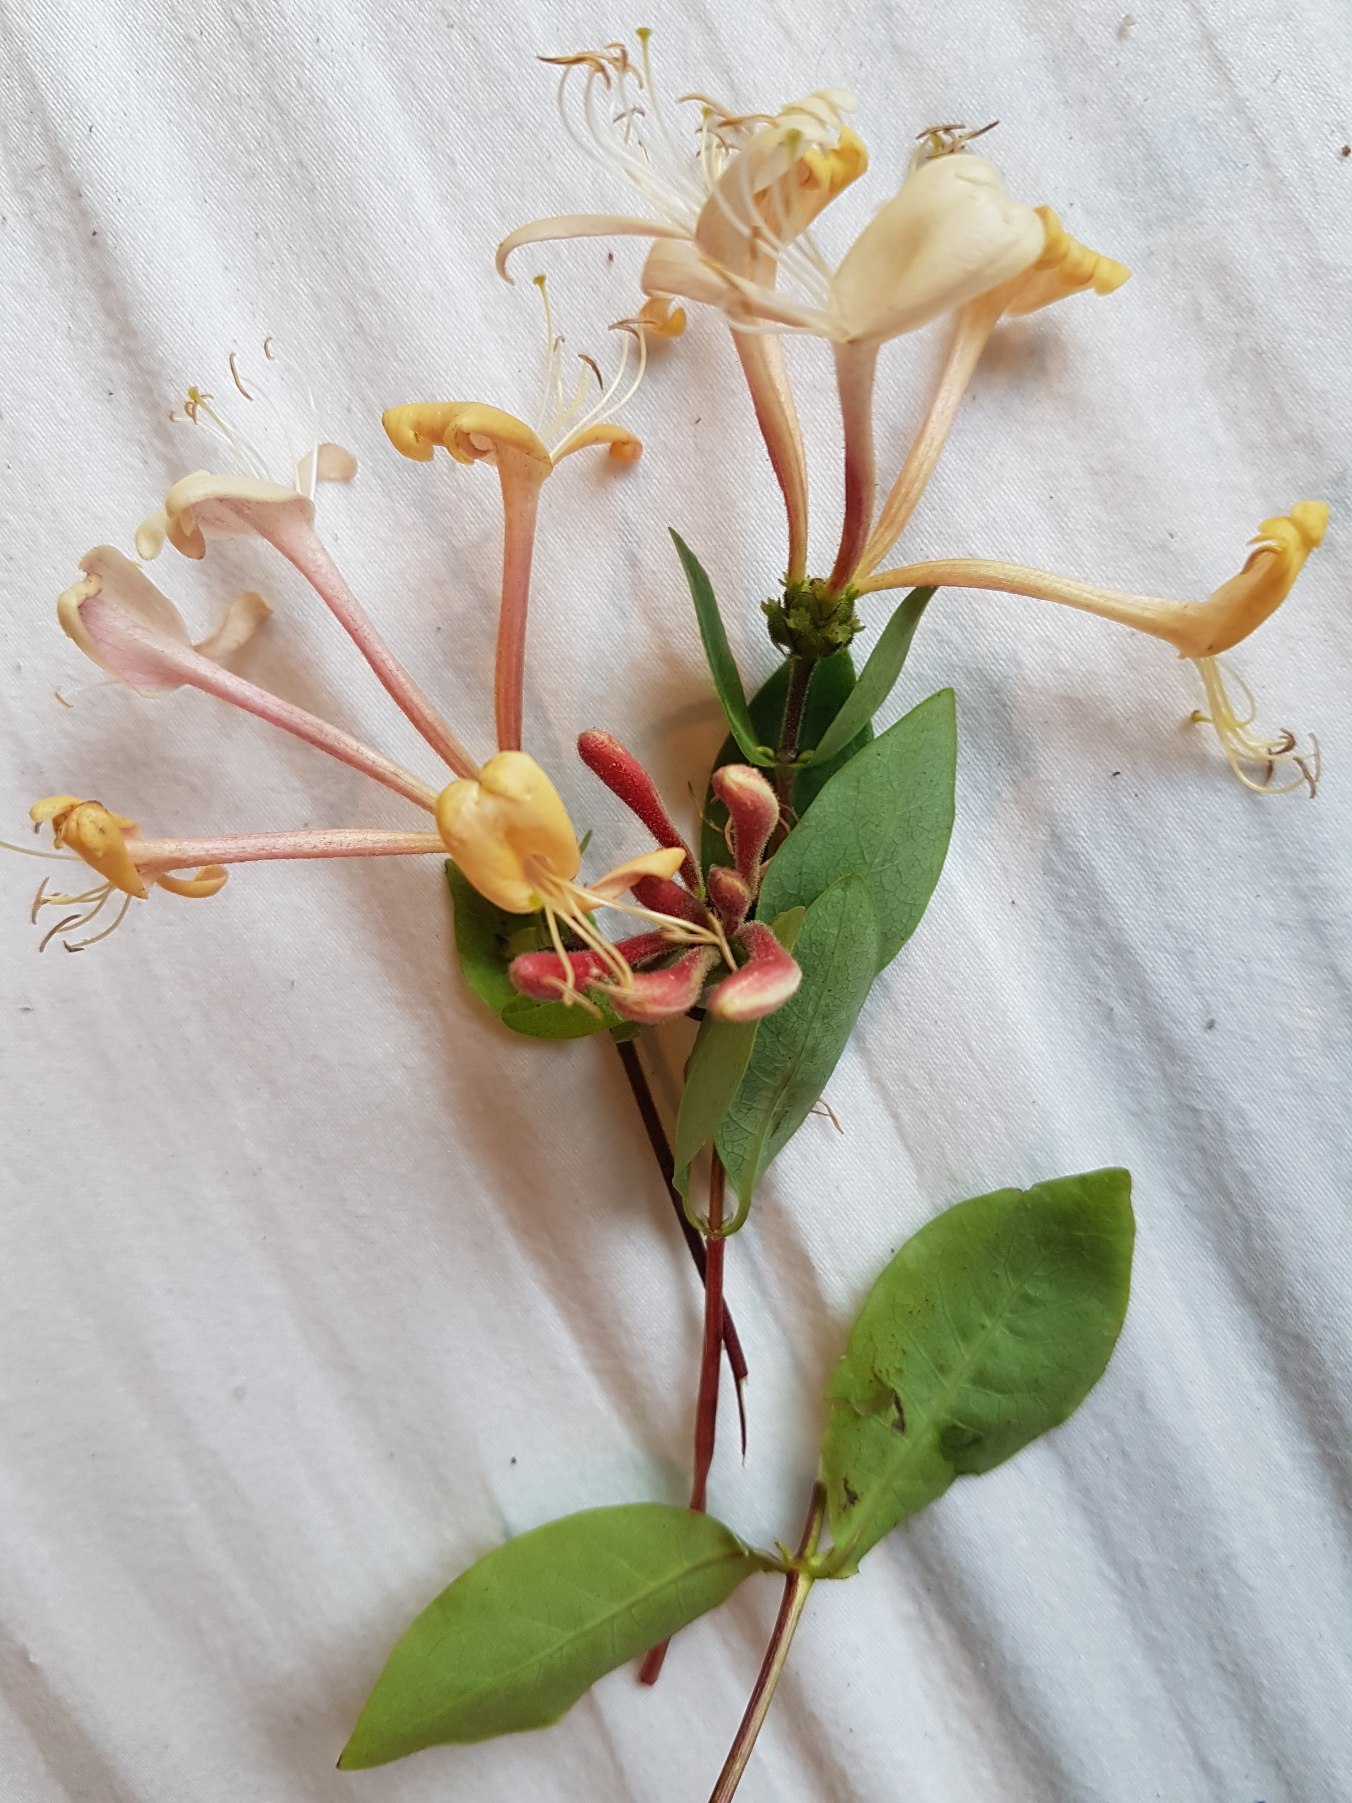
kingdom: Plantae
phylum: Tracheophyta
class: Magnoliopsida
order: Dipsacales
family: Caprifoliaceae
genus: Lonicera
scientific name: Lonicera periclymenum
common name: Almindelig gedeblad
